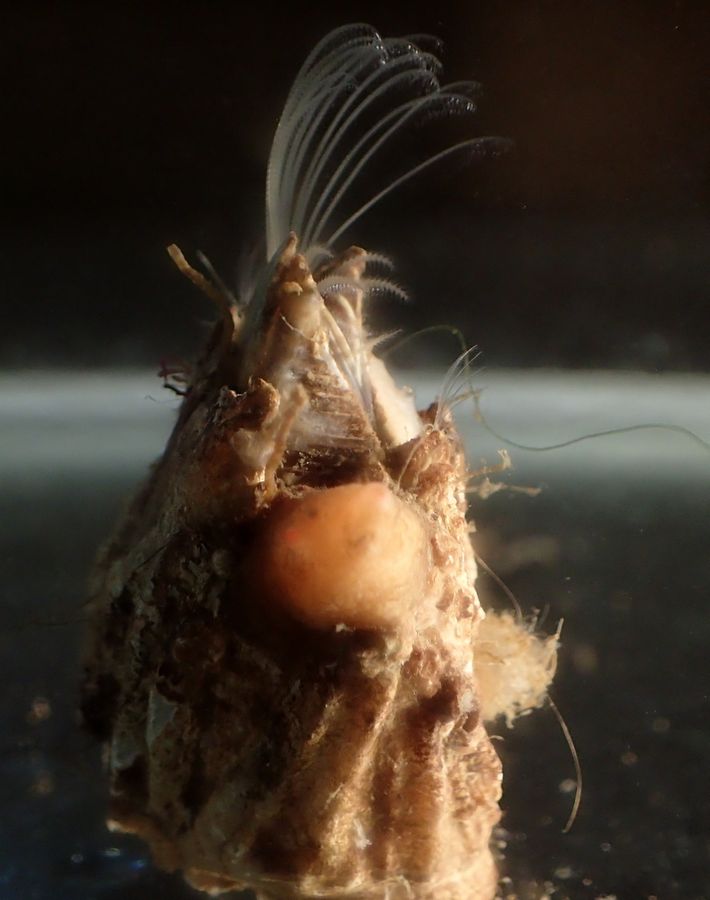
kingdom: Animalia
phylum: Arthropoda
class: Maxillopoda
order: Sessilia
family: Archaeobalanidae
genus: Chirona
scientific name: Chirona hameri
